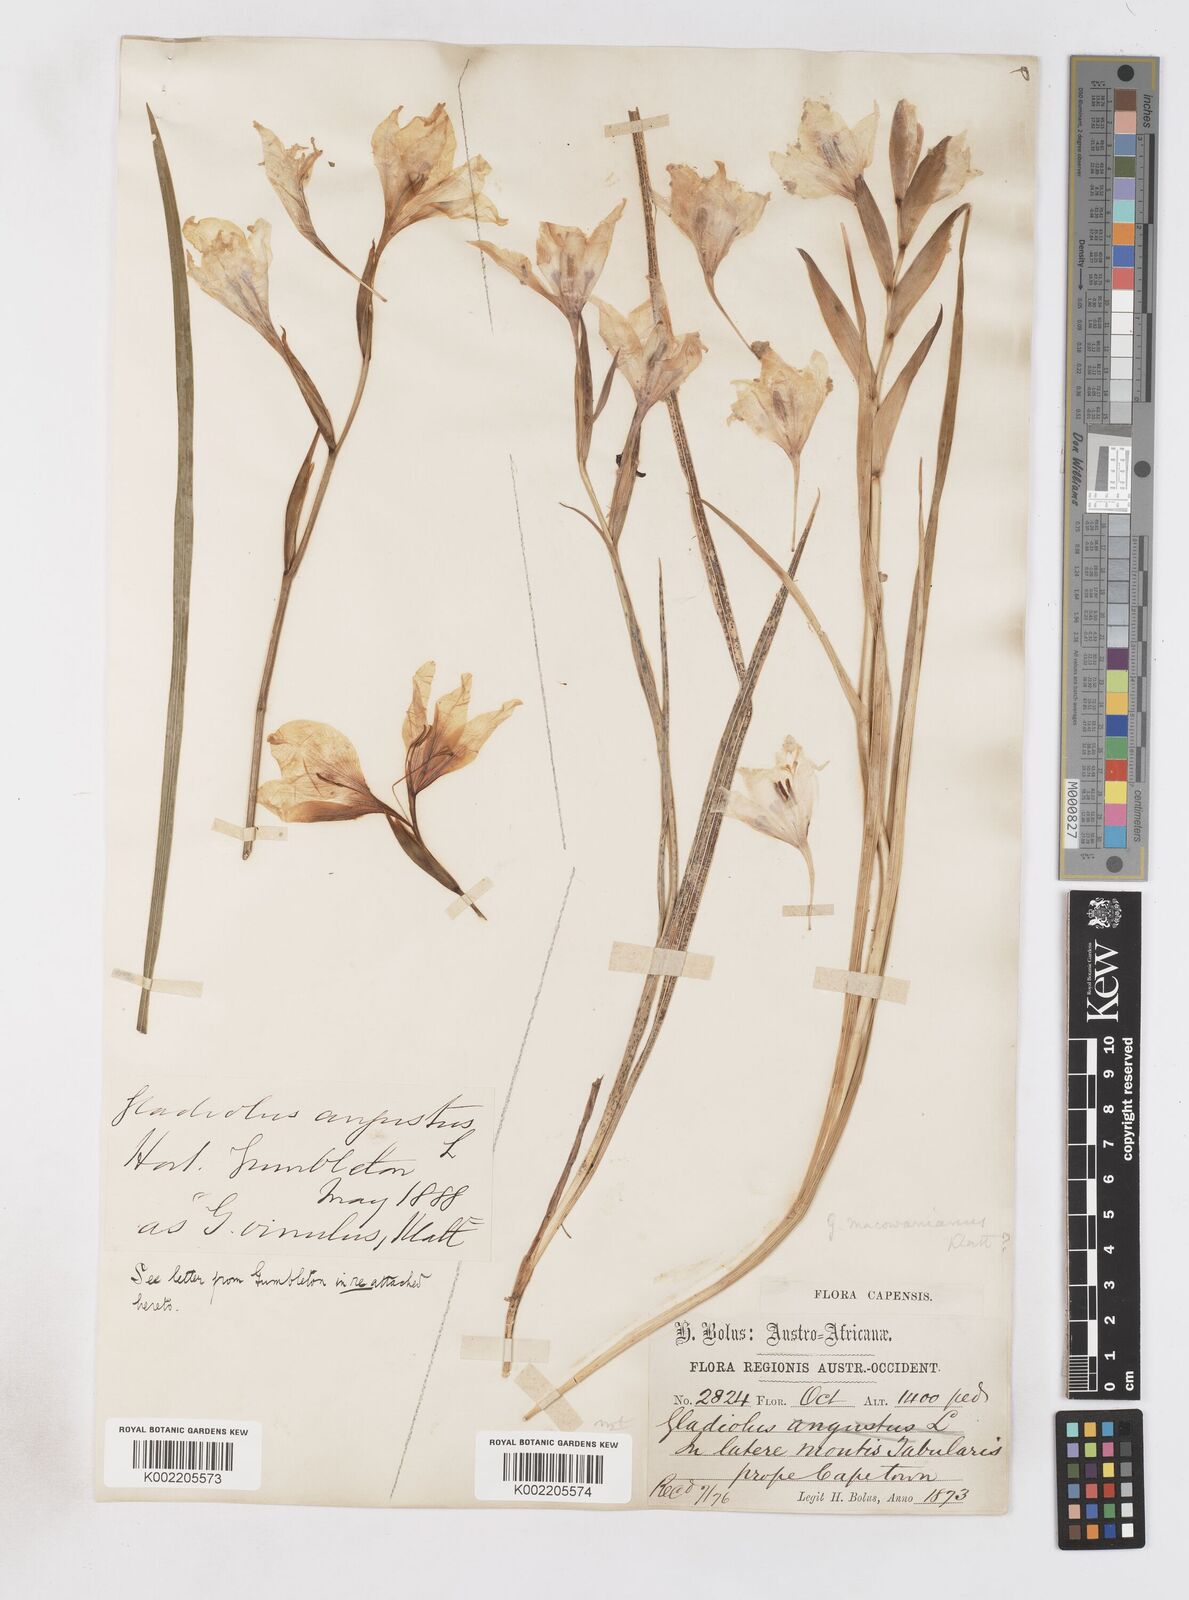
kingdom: Plantae
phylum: Tracheophyta
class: Liliopsida
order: Asparagales
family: Iridaceae
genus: Gladiolus
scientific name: Gladiolus carneus
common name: Painted-lady
